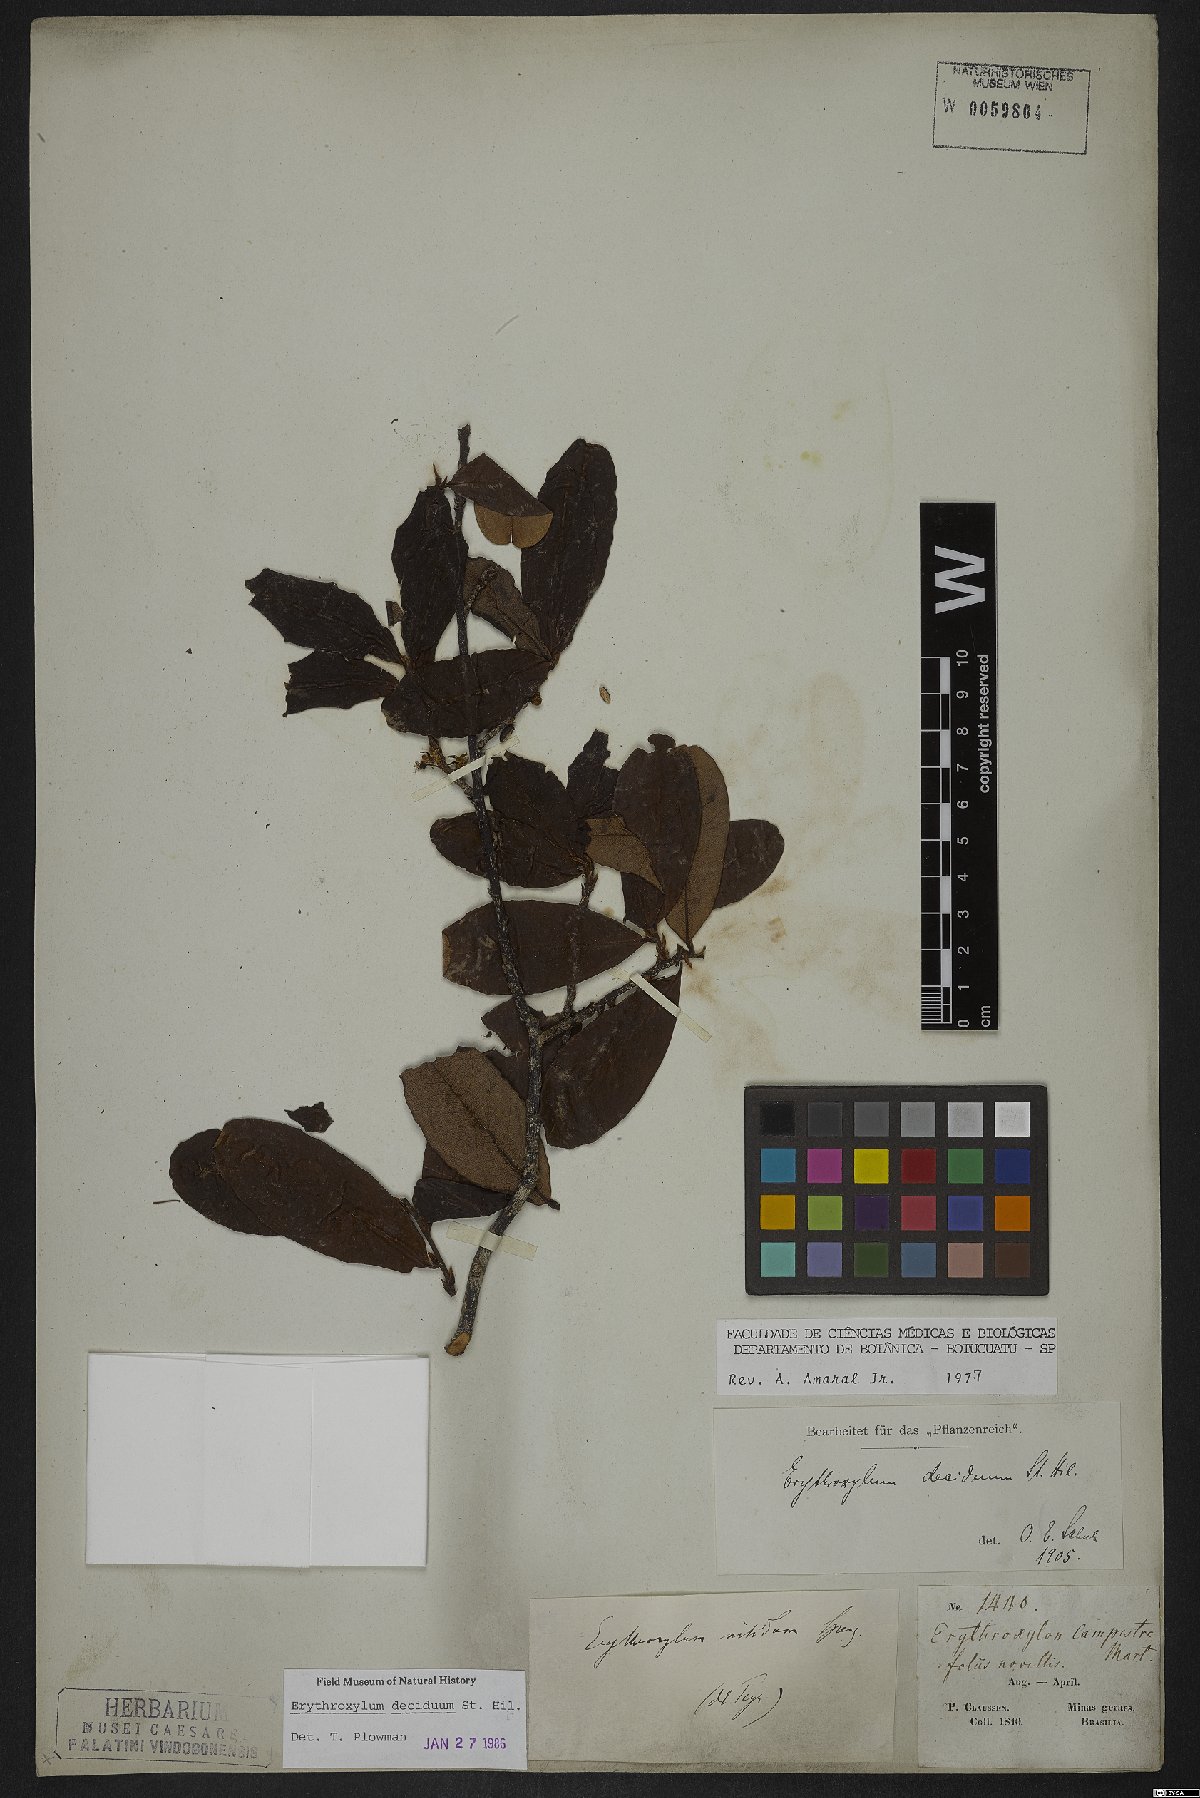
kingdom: Plantae
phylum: Tracheophyta
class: Magnoliopsida
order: Malpighiales
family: Erythroxylaceae
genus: Erythroxylum
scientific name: Erythroxylum deciduum
